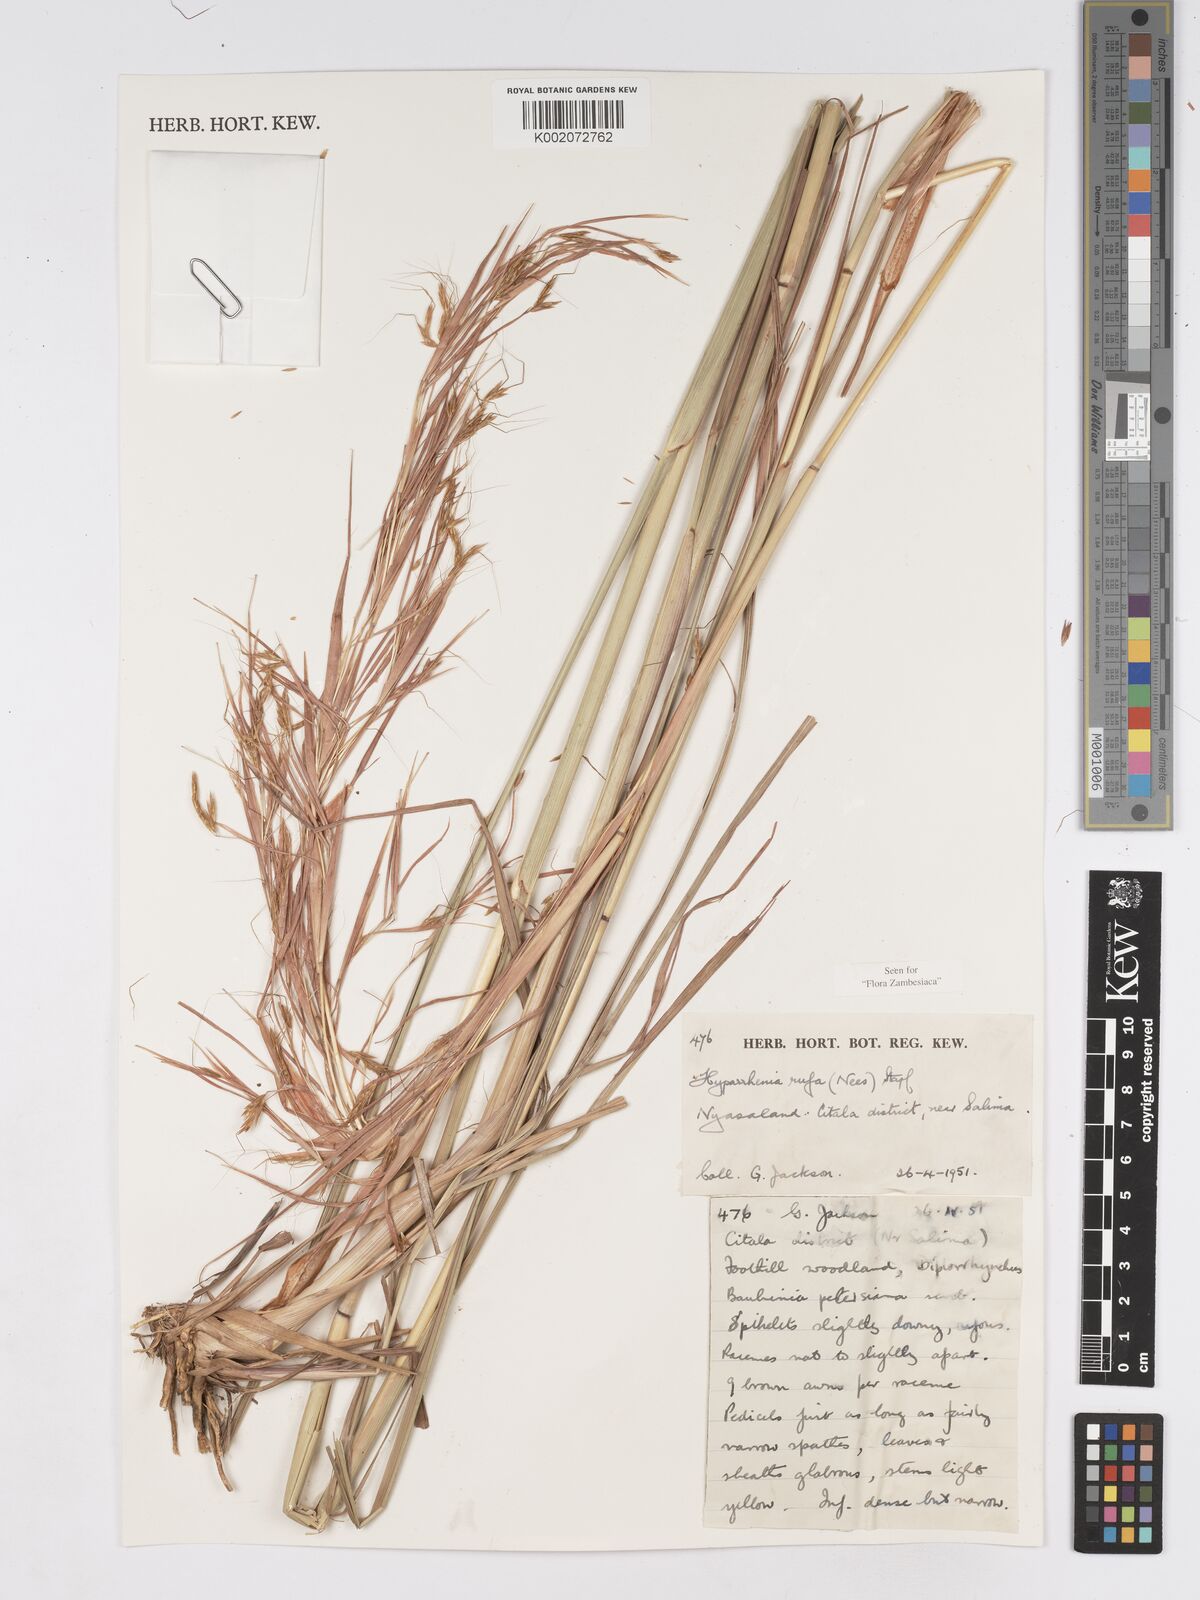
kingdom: Plantae
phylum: Tracheophyta
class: Liliopsida
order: Poales
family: Poaceae
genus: Hyparrhenia
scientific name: Hyparrhenia rufa
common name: Jaraguagrass
